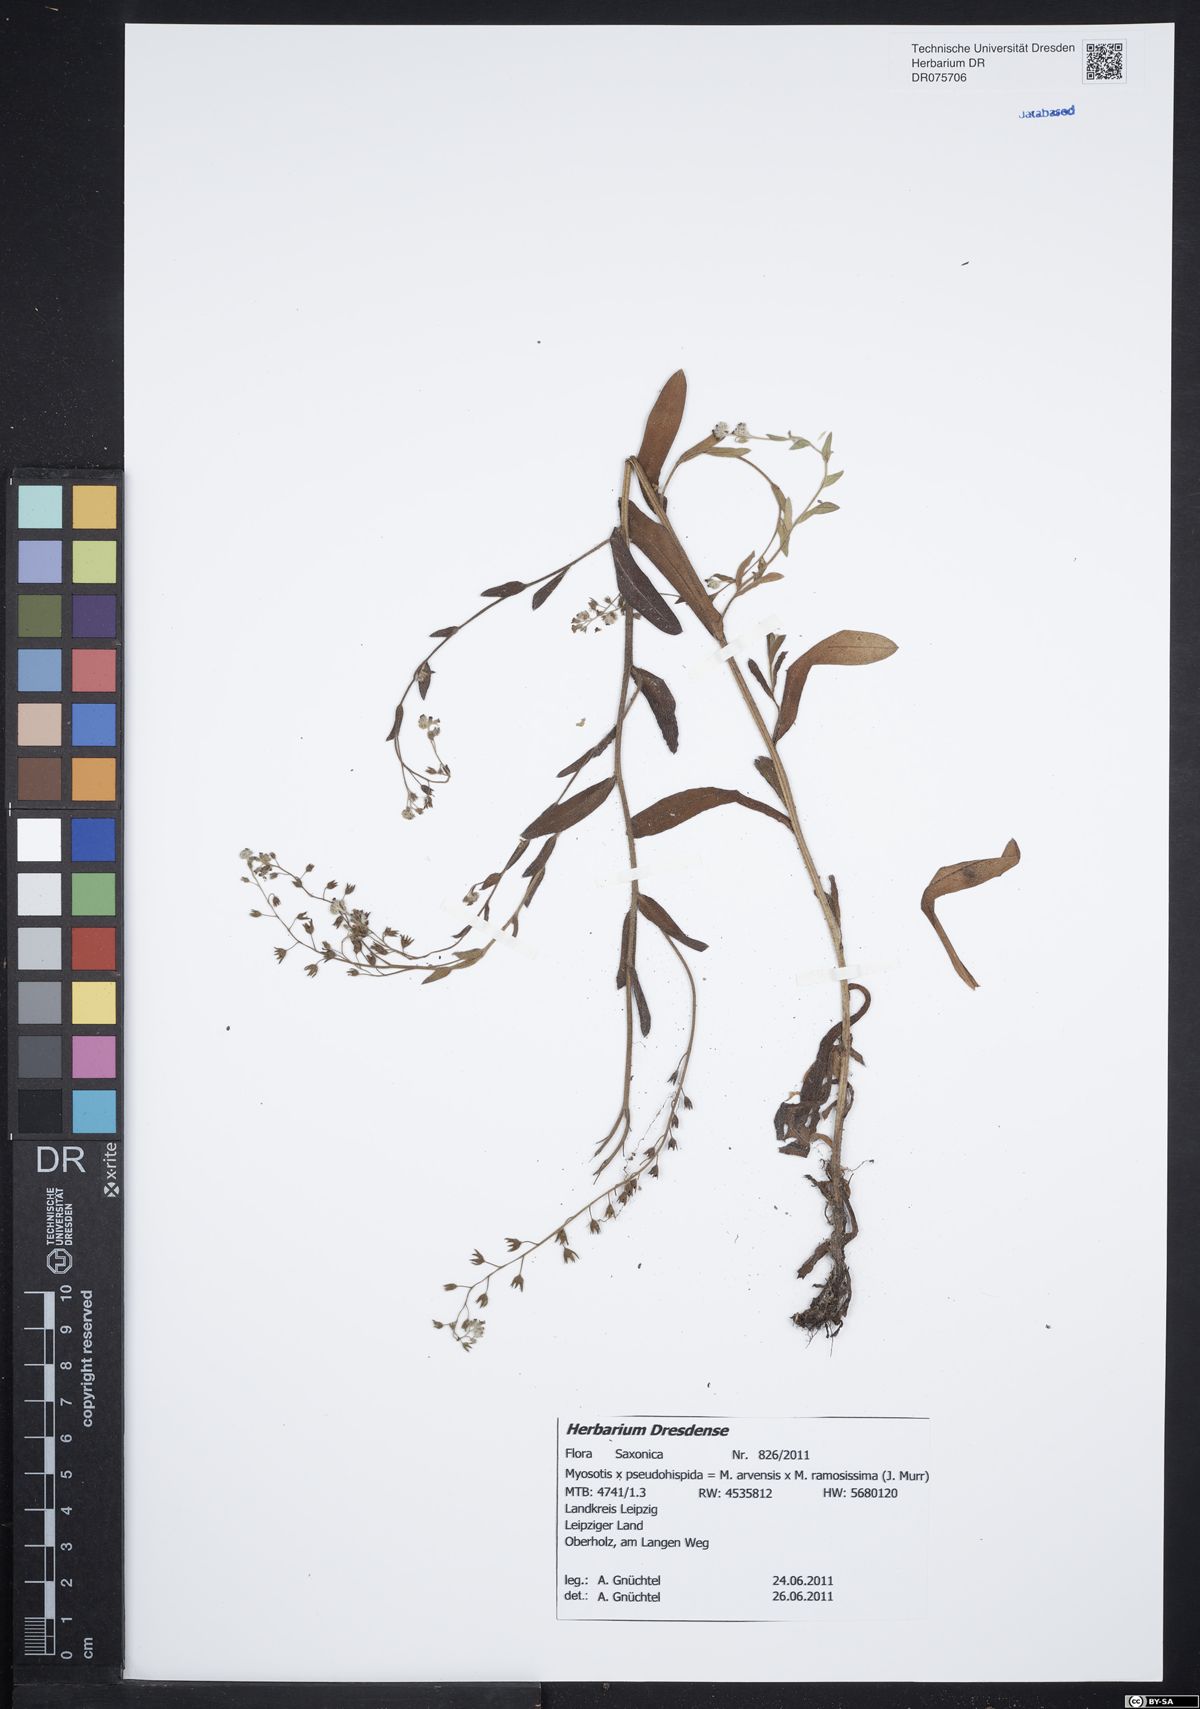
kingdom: Plantae
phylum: Tracheophyta
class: Magnoliopsida
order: Boraginales
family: Boraginaceae
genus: Myosotis
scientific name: Myosotis
